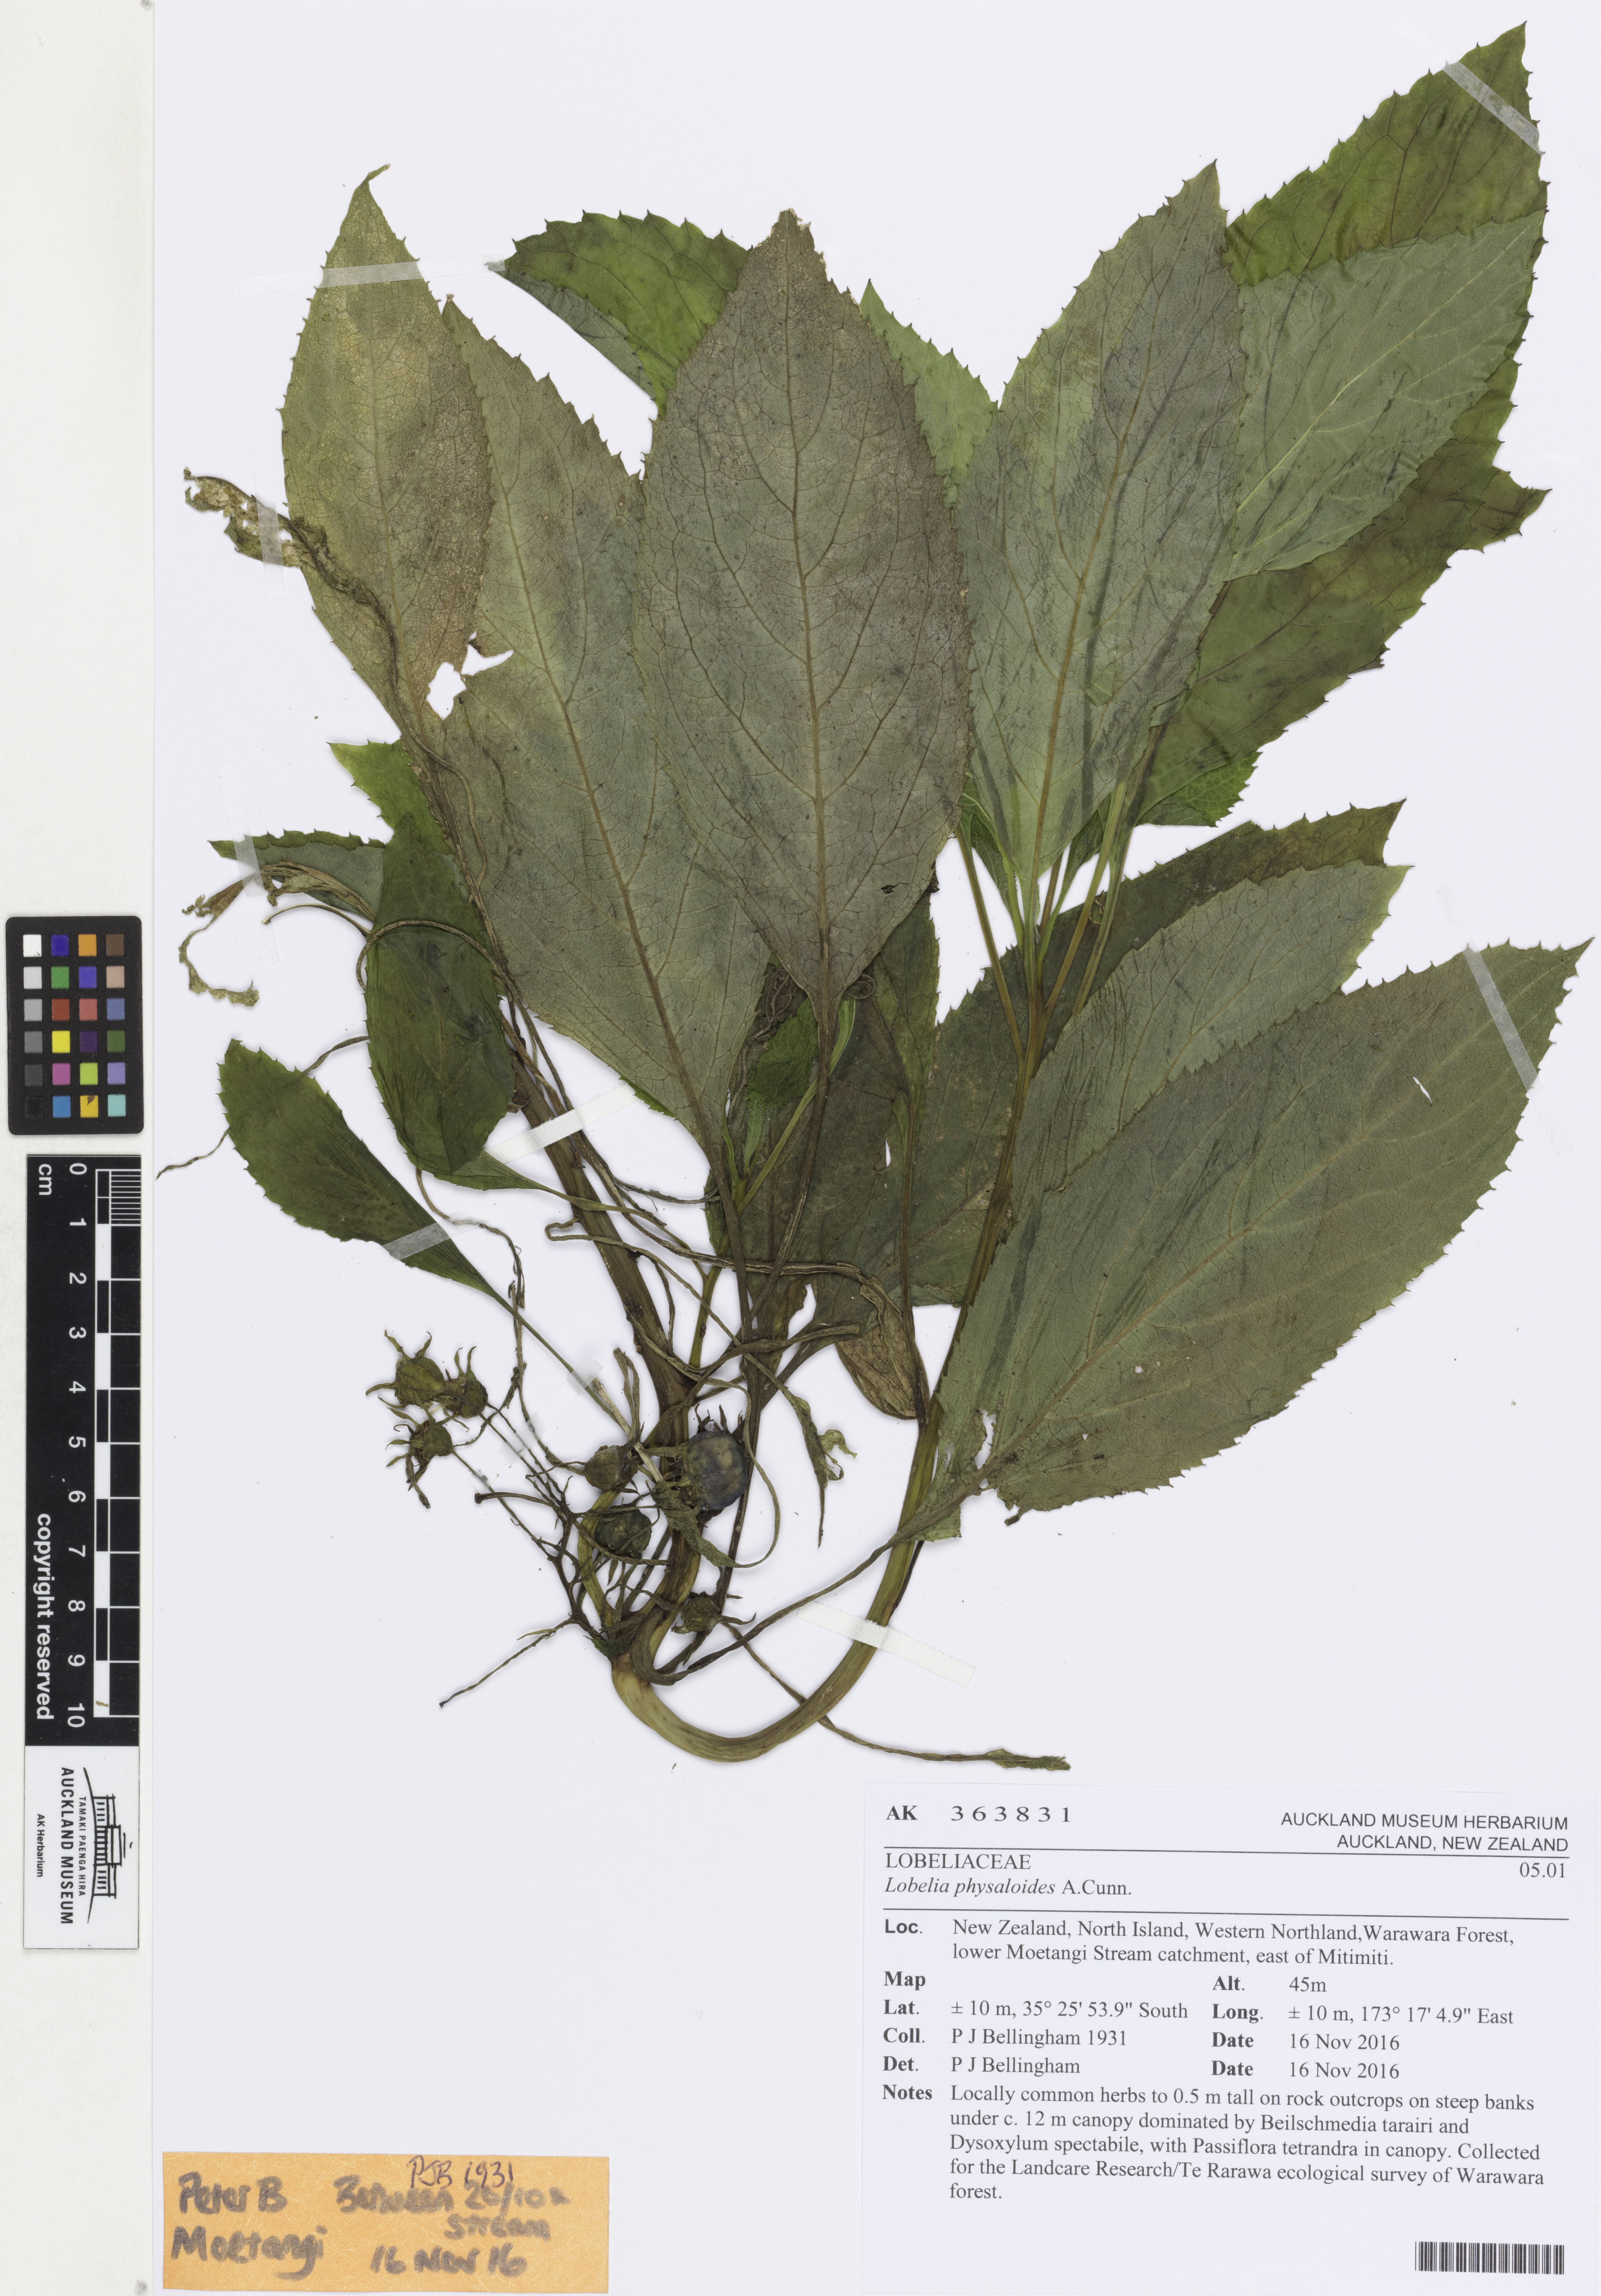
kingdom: Plantae
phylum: Tracheophyta
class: Magnoliopsida
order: Asterales
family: Campanulaceae
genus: Lobelia
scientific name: Lobelia physaloides
